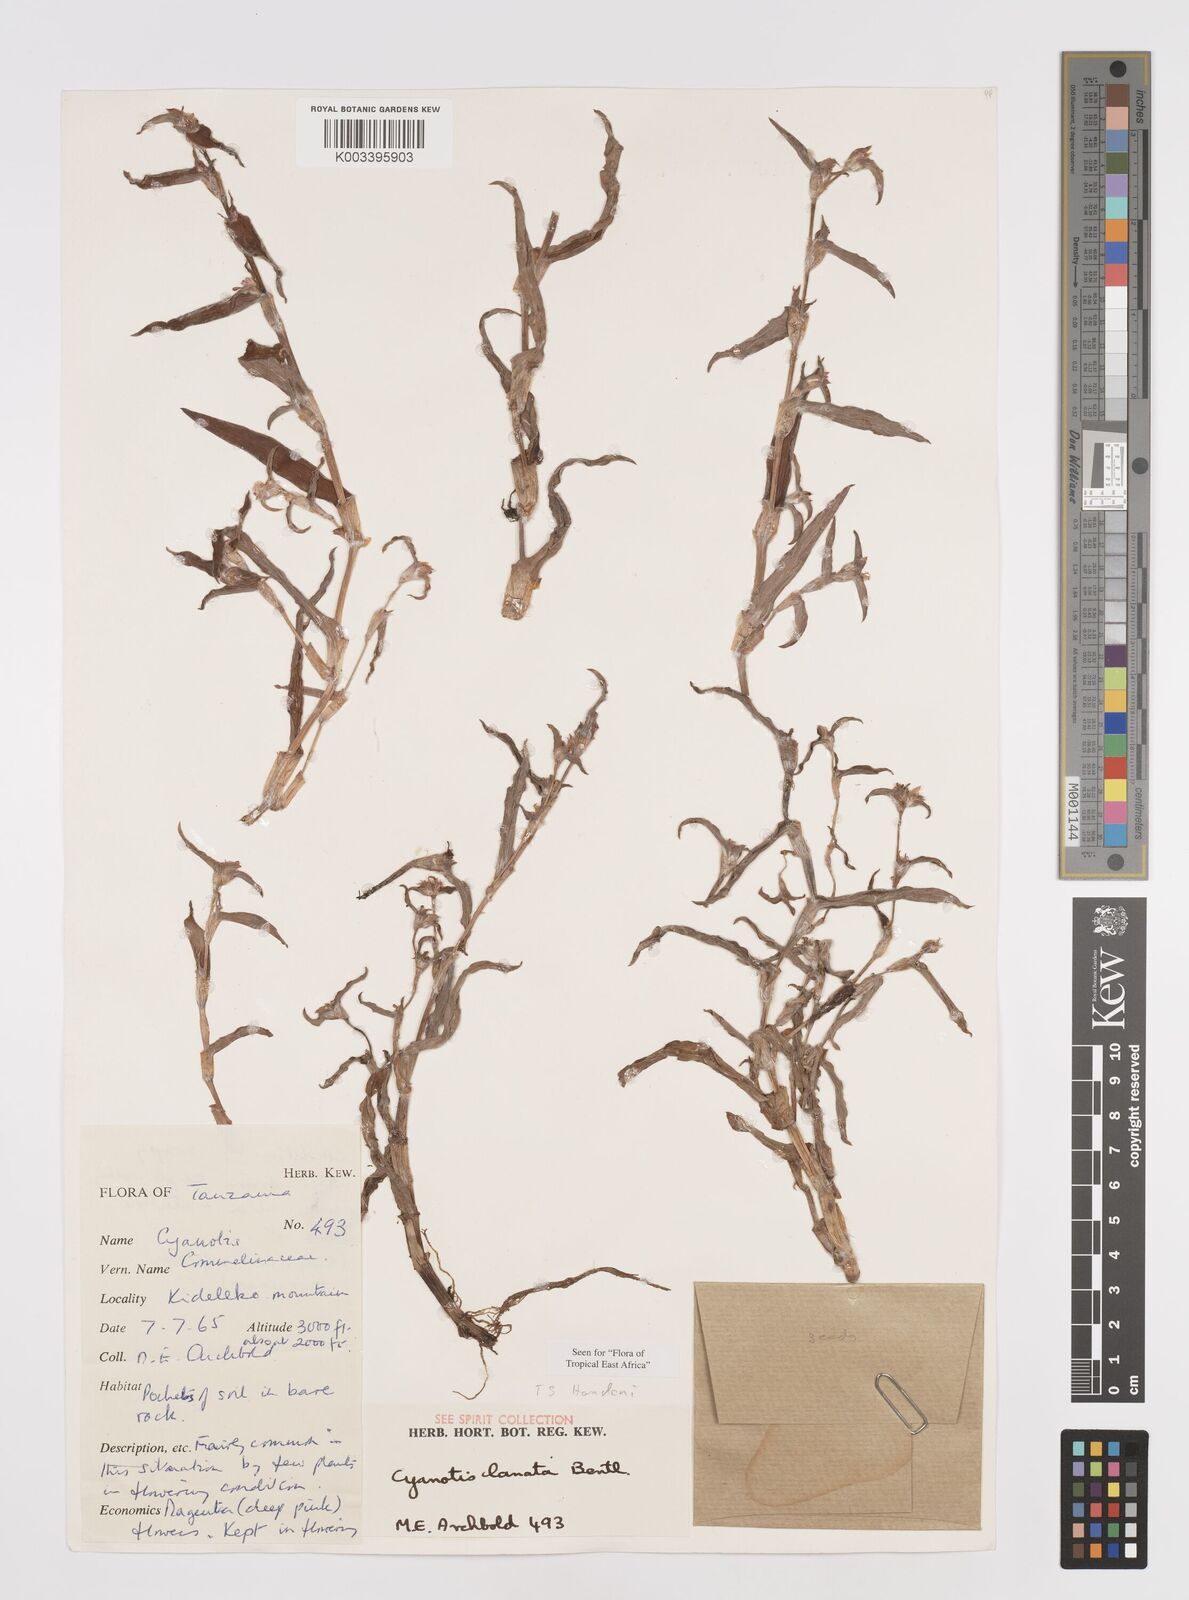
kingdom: Plantae
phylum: Tracheophyta
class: Liliopsida
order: Commelinales
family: Commelinaceae
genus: Cyanotis
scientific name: Cyanotis lanata
